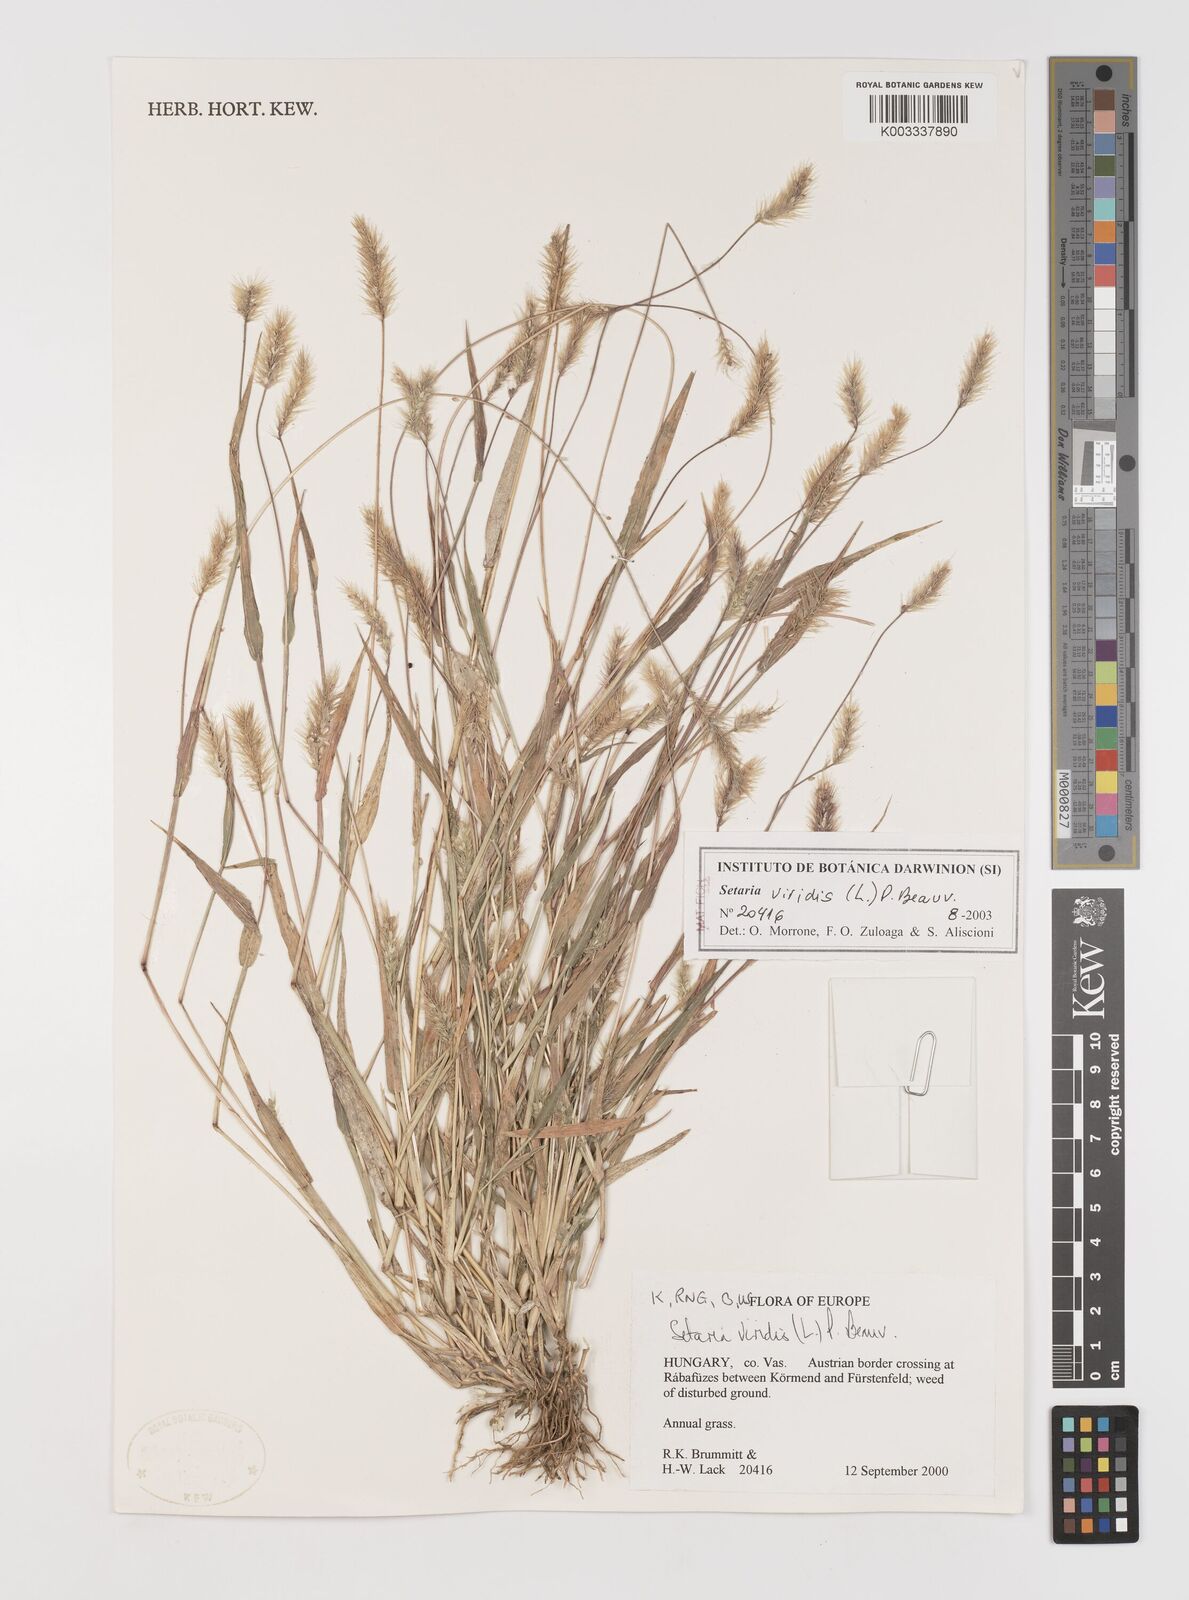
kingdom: Plantae
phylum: Tracheophyta
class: Liliopsida
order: Poales
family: Poaceae
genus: Setaria
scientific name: Setaria viridis
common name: Green bristlegrass
